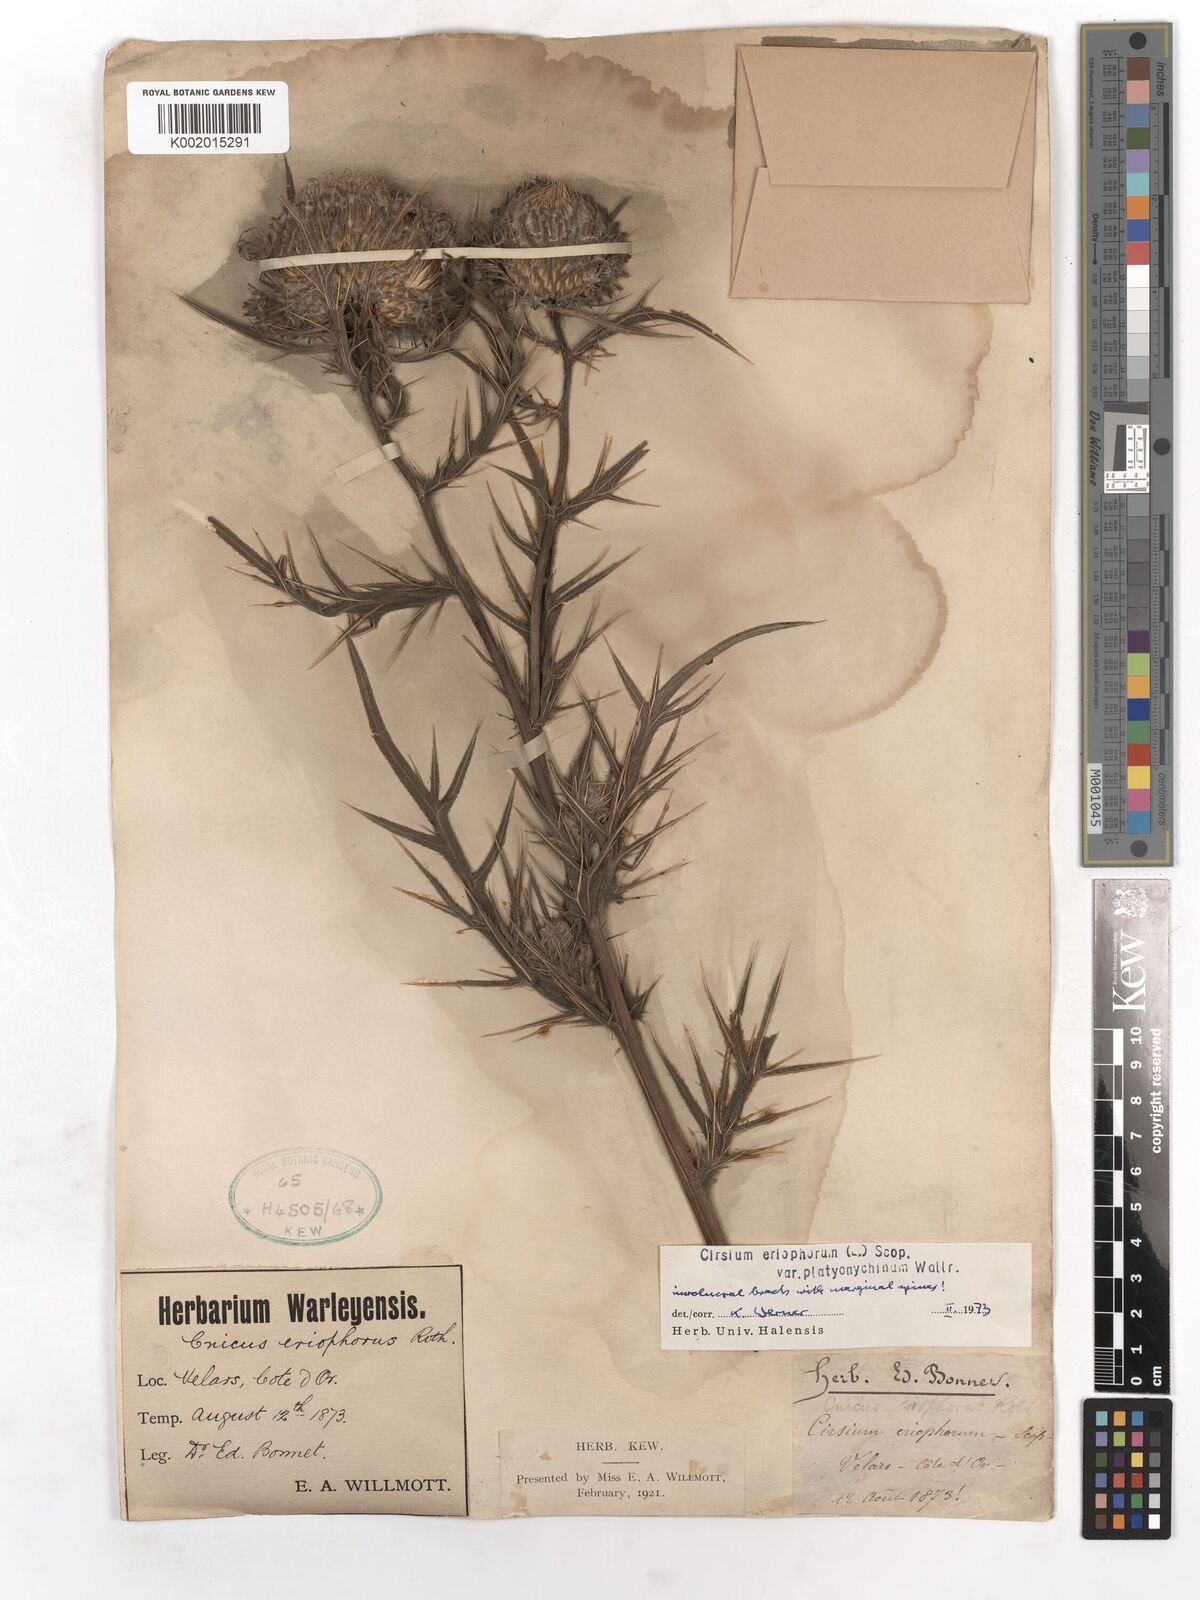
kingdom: Plantae
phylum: Tracheophyta
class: Magnoliopsida
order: Asterales
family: Asteraceae
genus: Lophiolepis
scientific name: Lophiolepis eriophora
